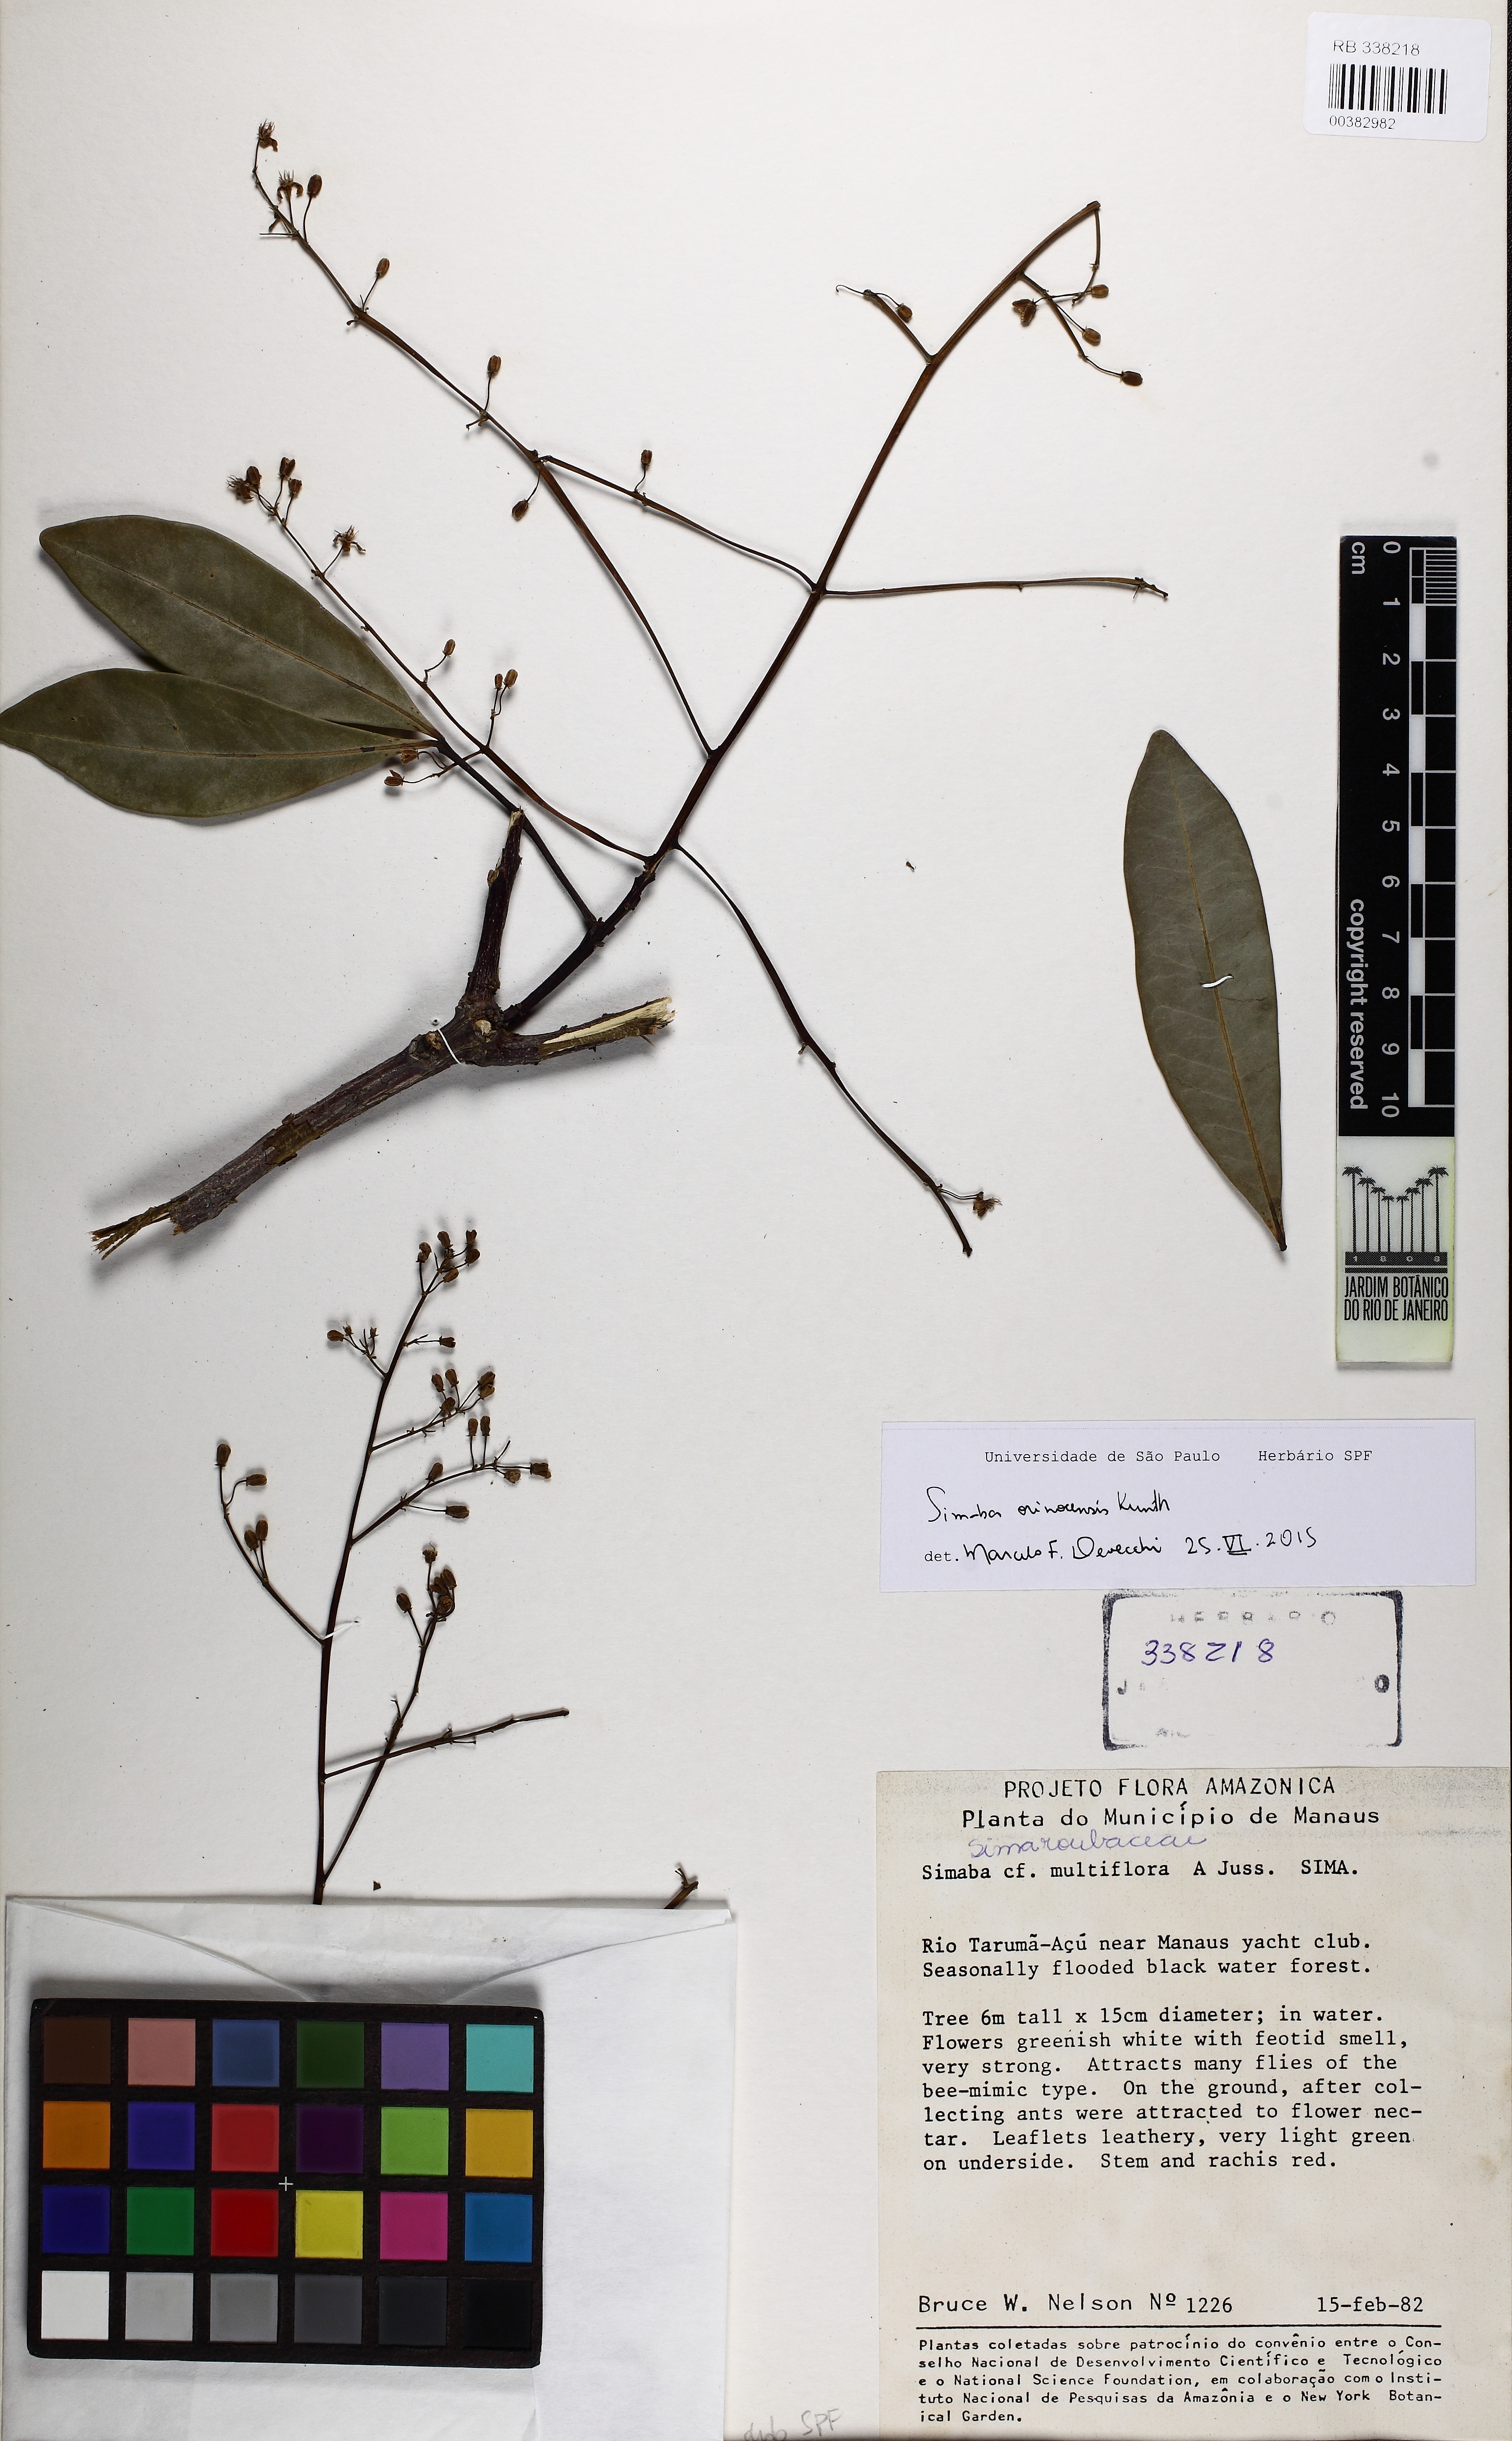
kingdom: Plantae
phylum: Tracheophyta
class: Magnoliopsida
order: Sapindales
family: Simaroubaceae
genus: Simaba
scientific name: Simaba orinocensis
